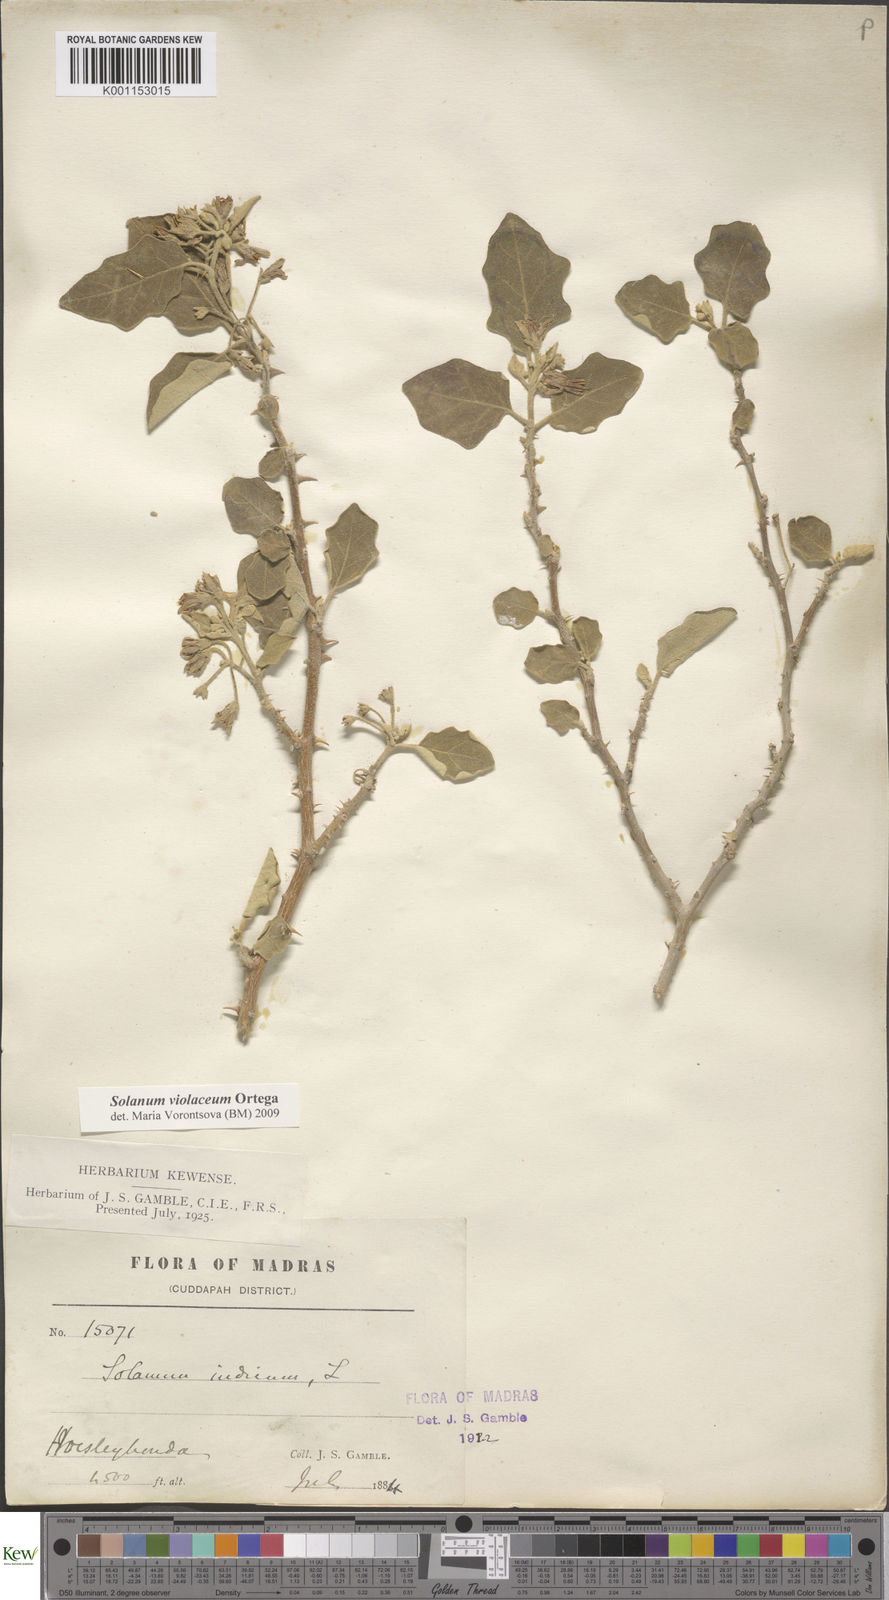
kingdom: Plantae
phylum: Tracheophyta
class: Magnoliopsida
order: Solanales
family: Solanaceae
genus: Solanum
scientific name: Solanum violaceum
